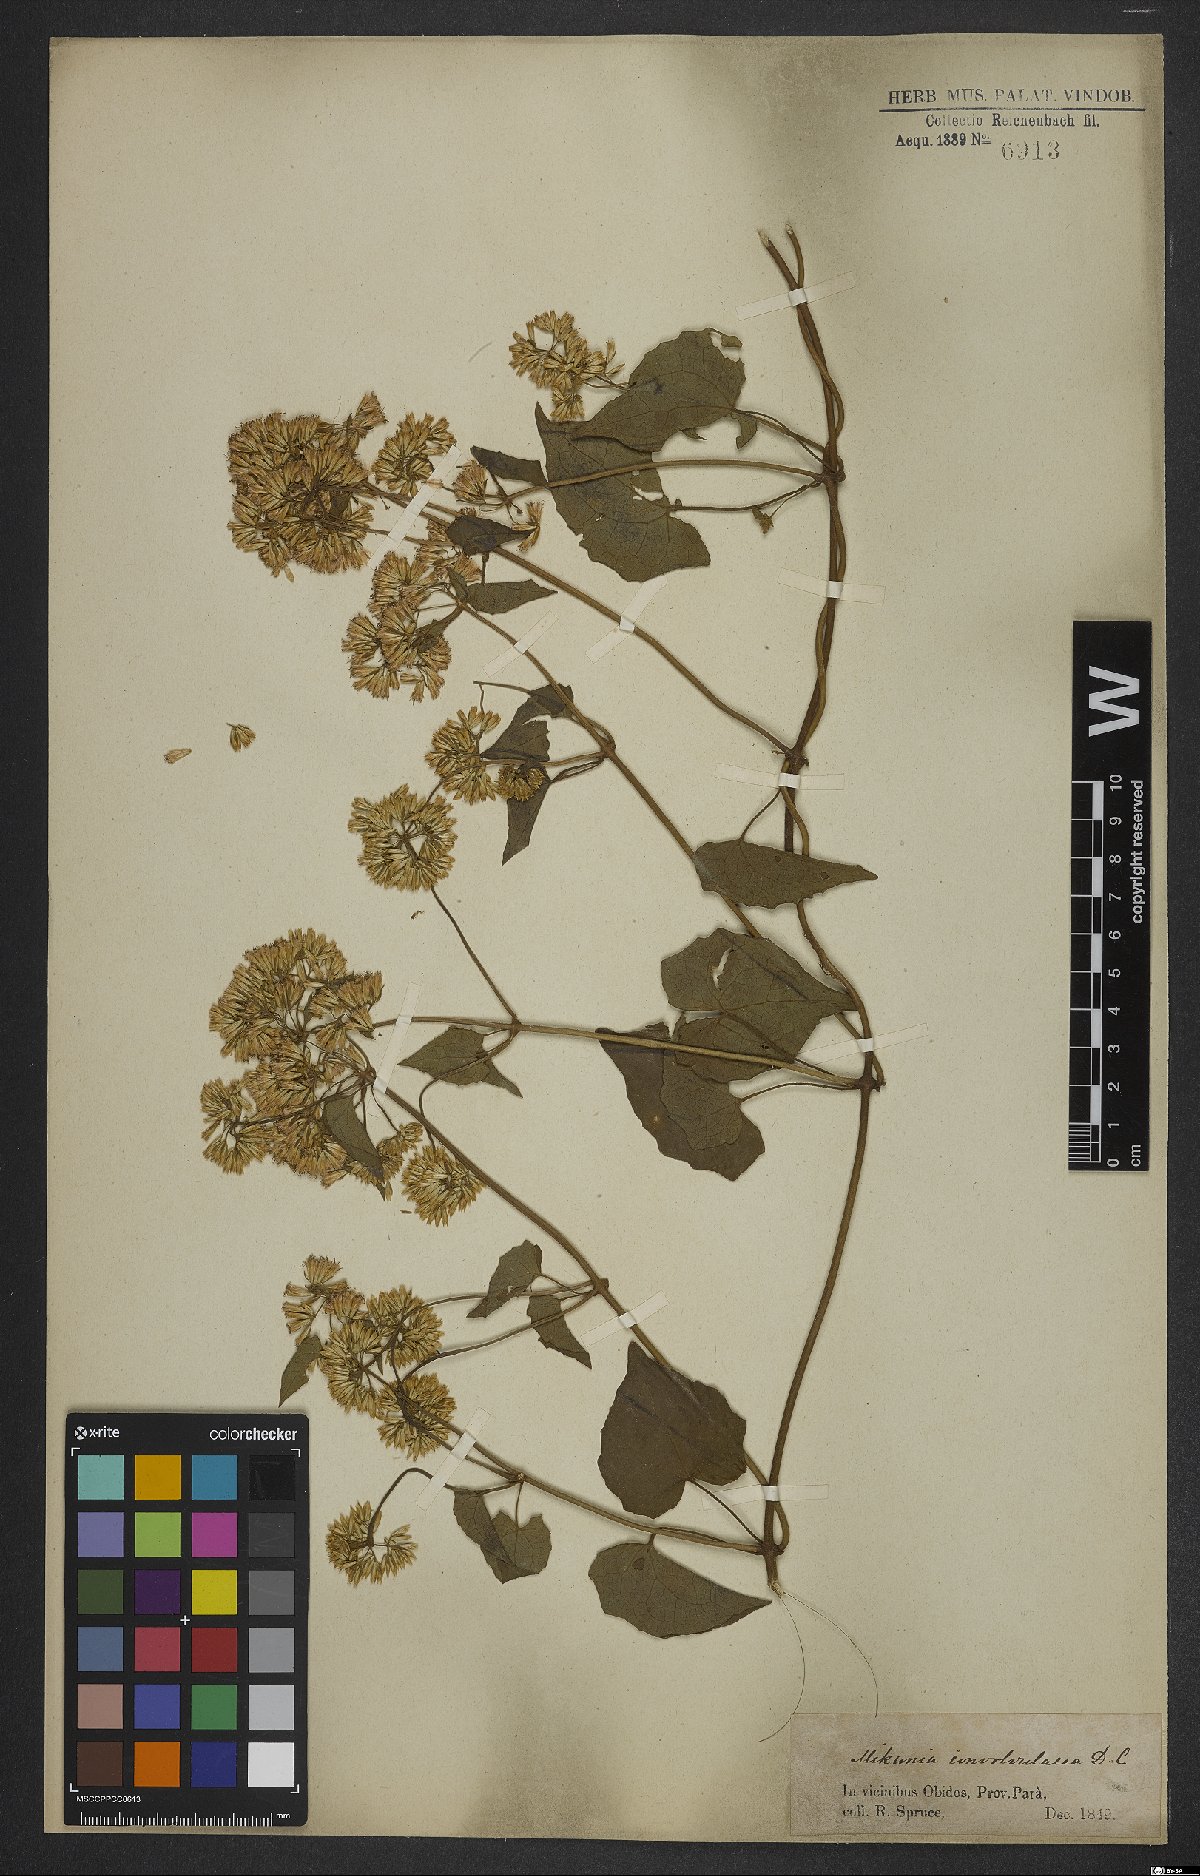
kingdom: Plantae
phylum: Tracheophyta
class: Magnoliopsida
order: Asterales
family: Asteraceae
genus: Mikania
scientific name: Mikania cordifolia
